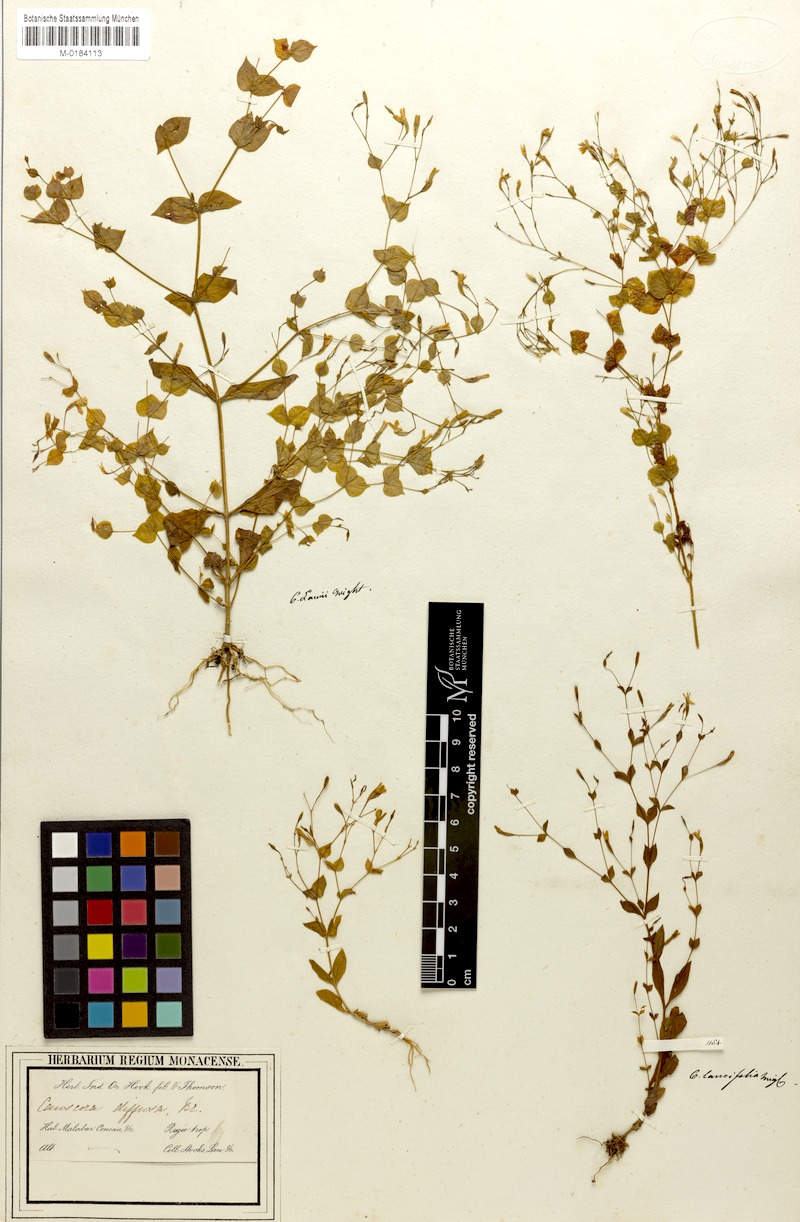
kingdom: Plantae
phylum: Tracheophyta
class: Magnoliopsida
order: Gentianales
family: Gentianaceae
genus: Canscora
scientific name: Canscora diffusa
